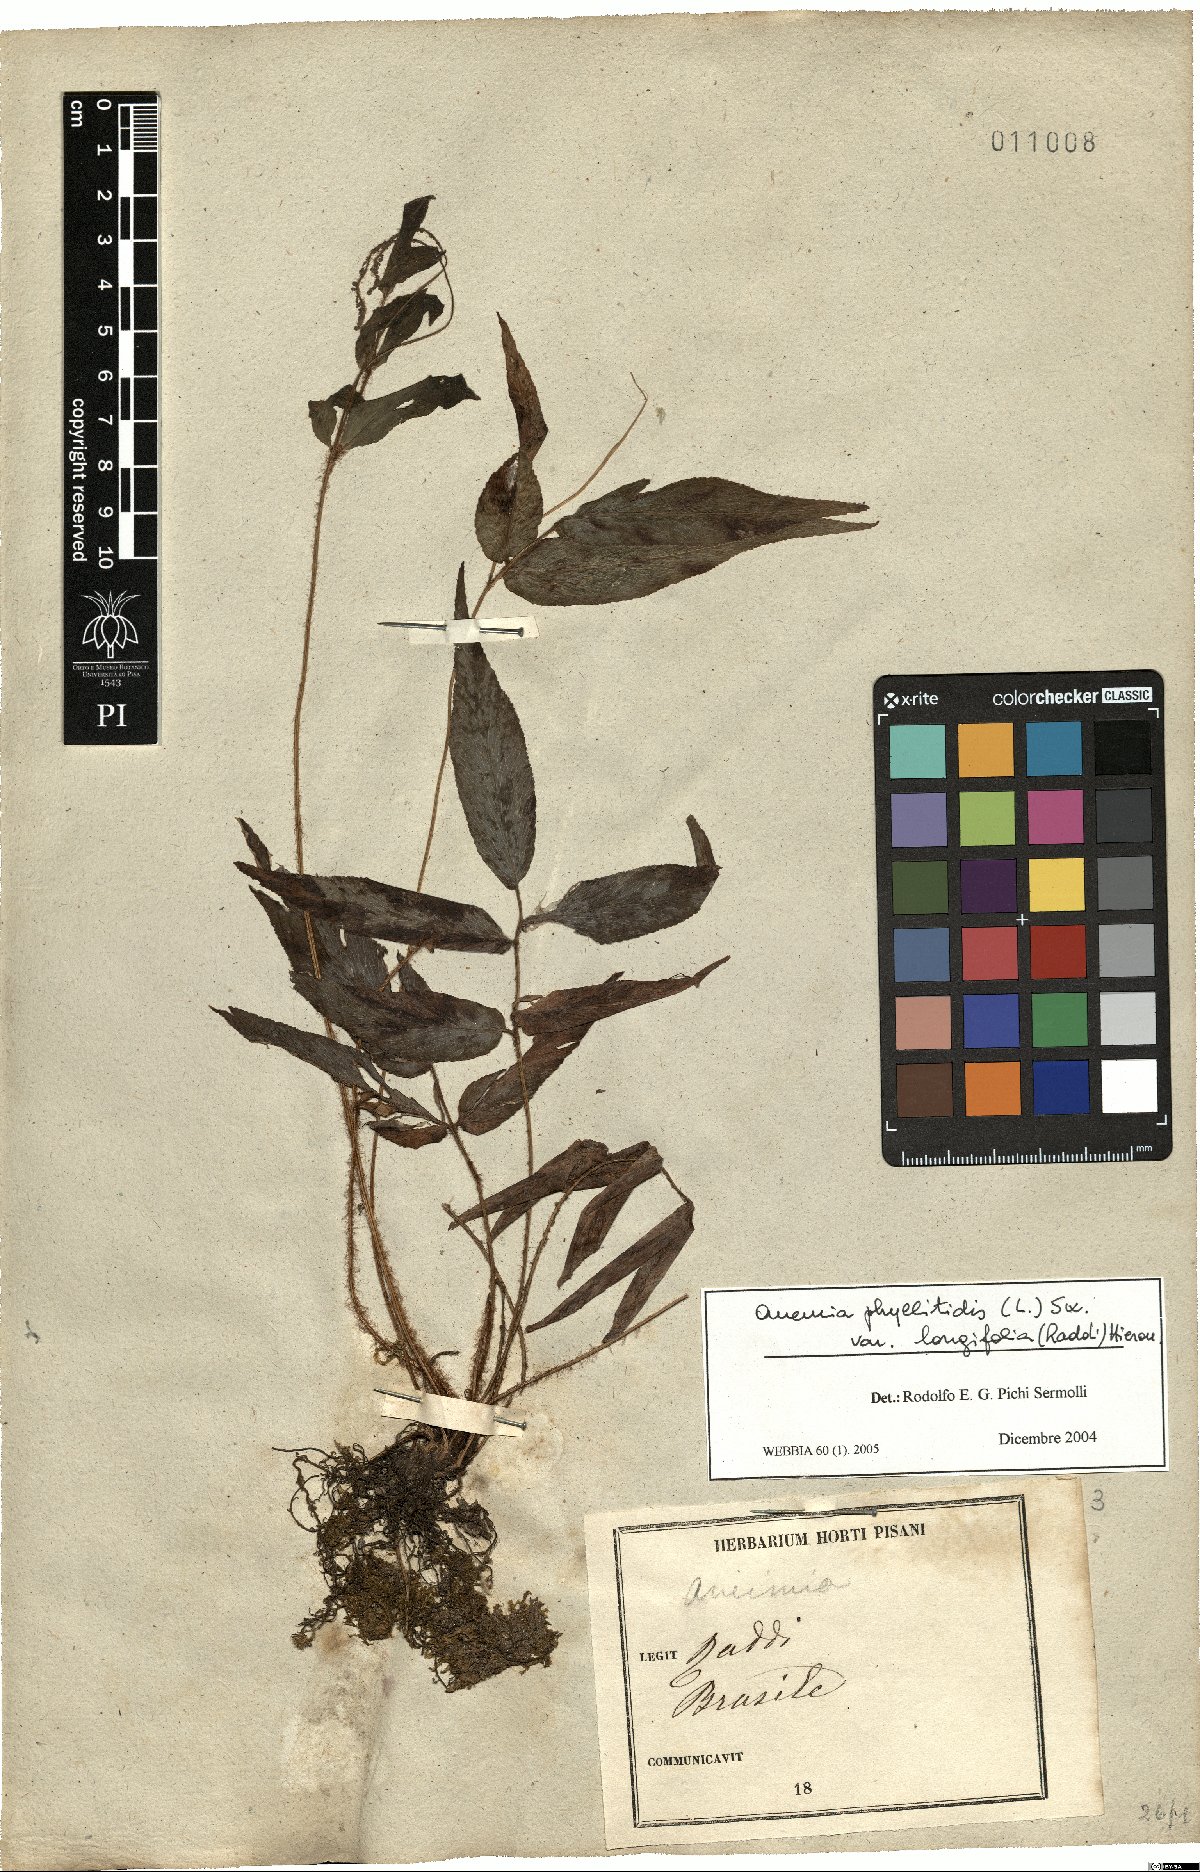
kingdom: Plantae
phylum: Tracheophyta
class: Polypodiopsida
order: Schizaeales
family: Anemiaceae
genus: Anemia
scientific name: Anemia phyllitidis
